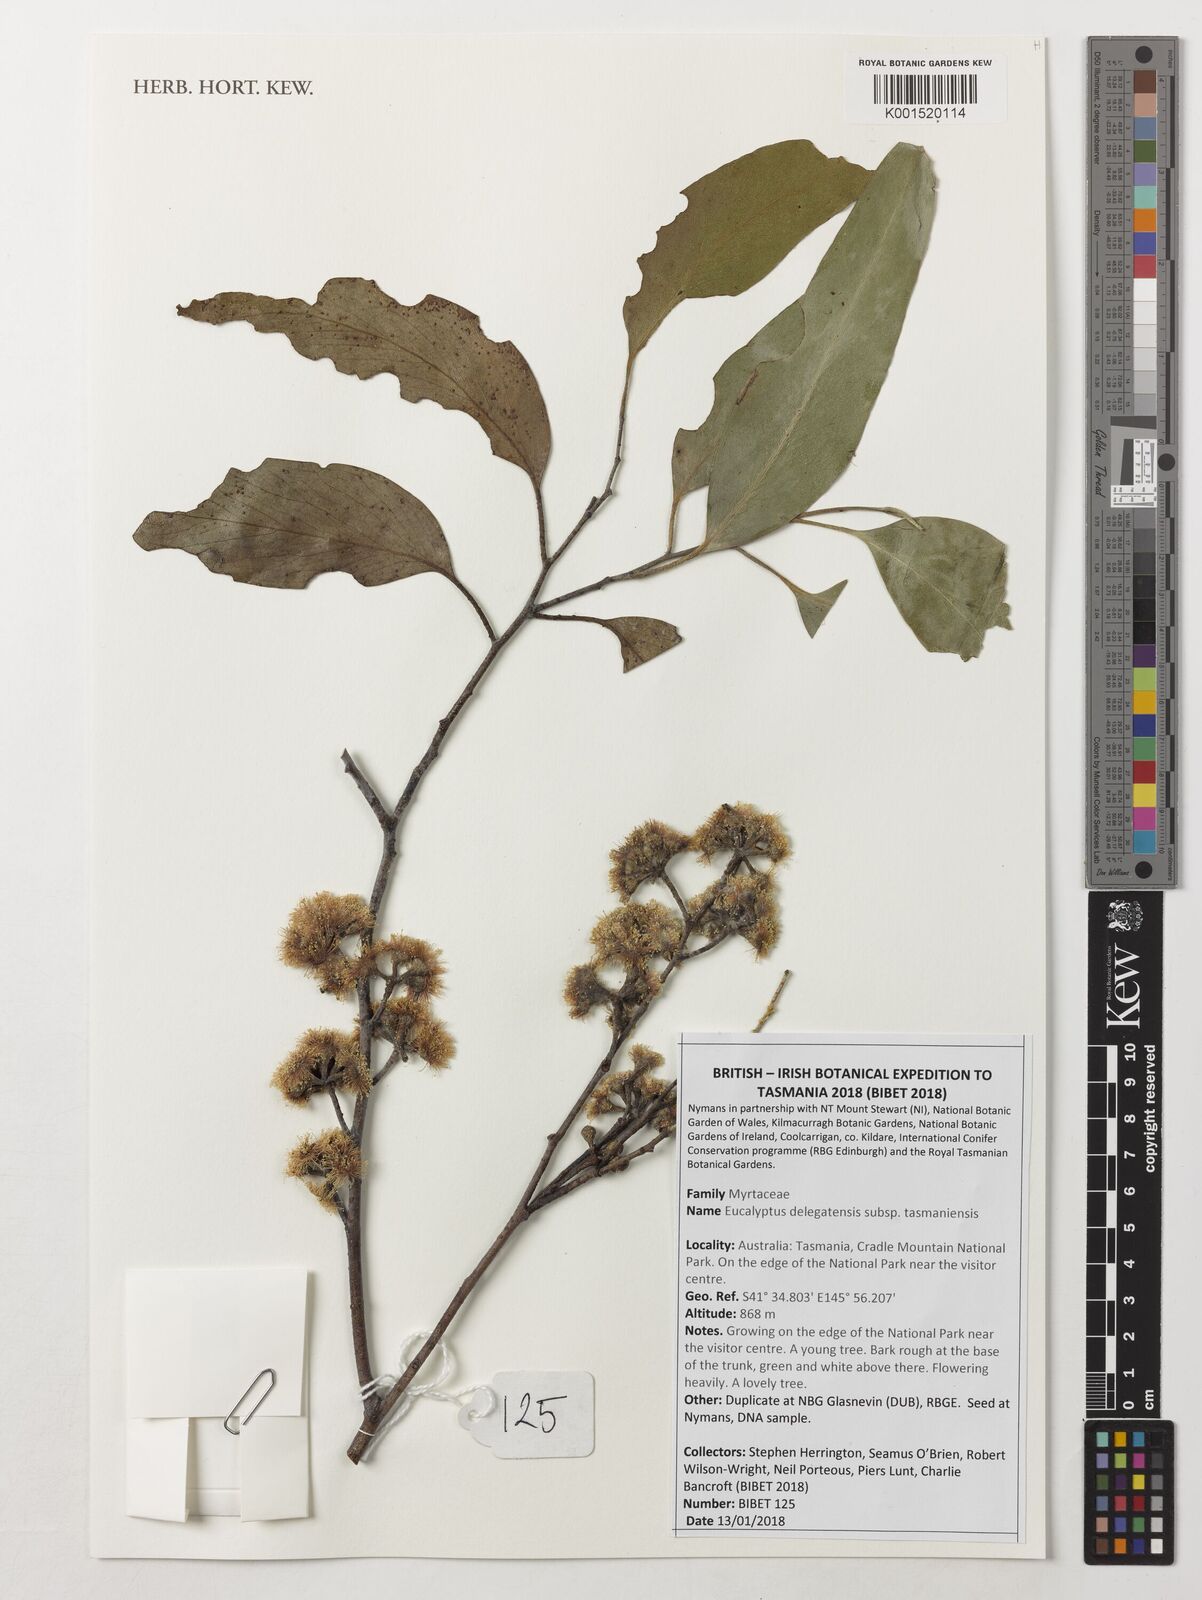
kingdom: Plantae
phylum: Tracheophyta
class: Magnoliopsida
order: Myrtales
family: Myrtaceae
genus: Eucalyptus
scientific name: Eucalyptus delegatensis
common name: Alpine-ash
